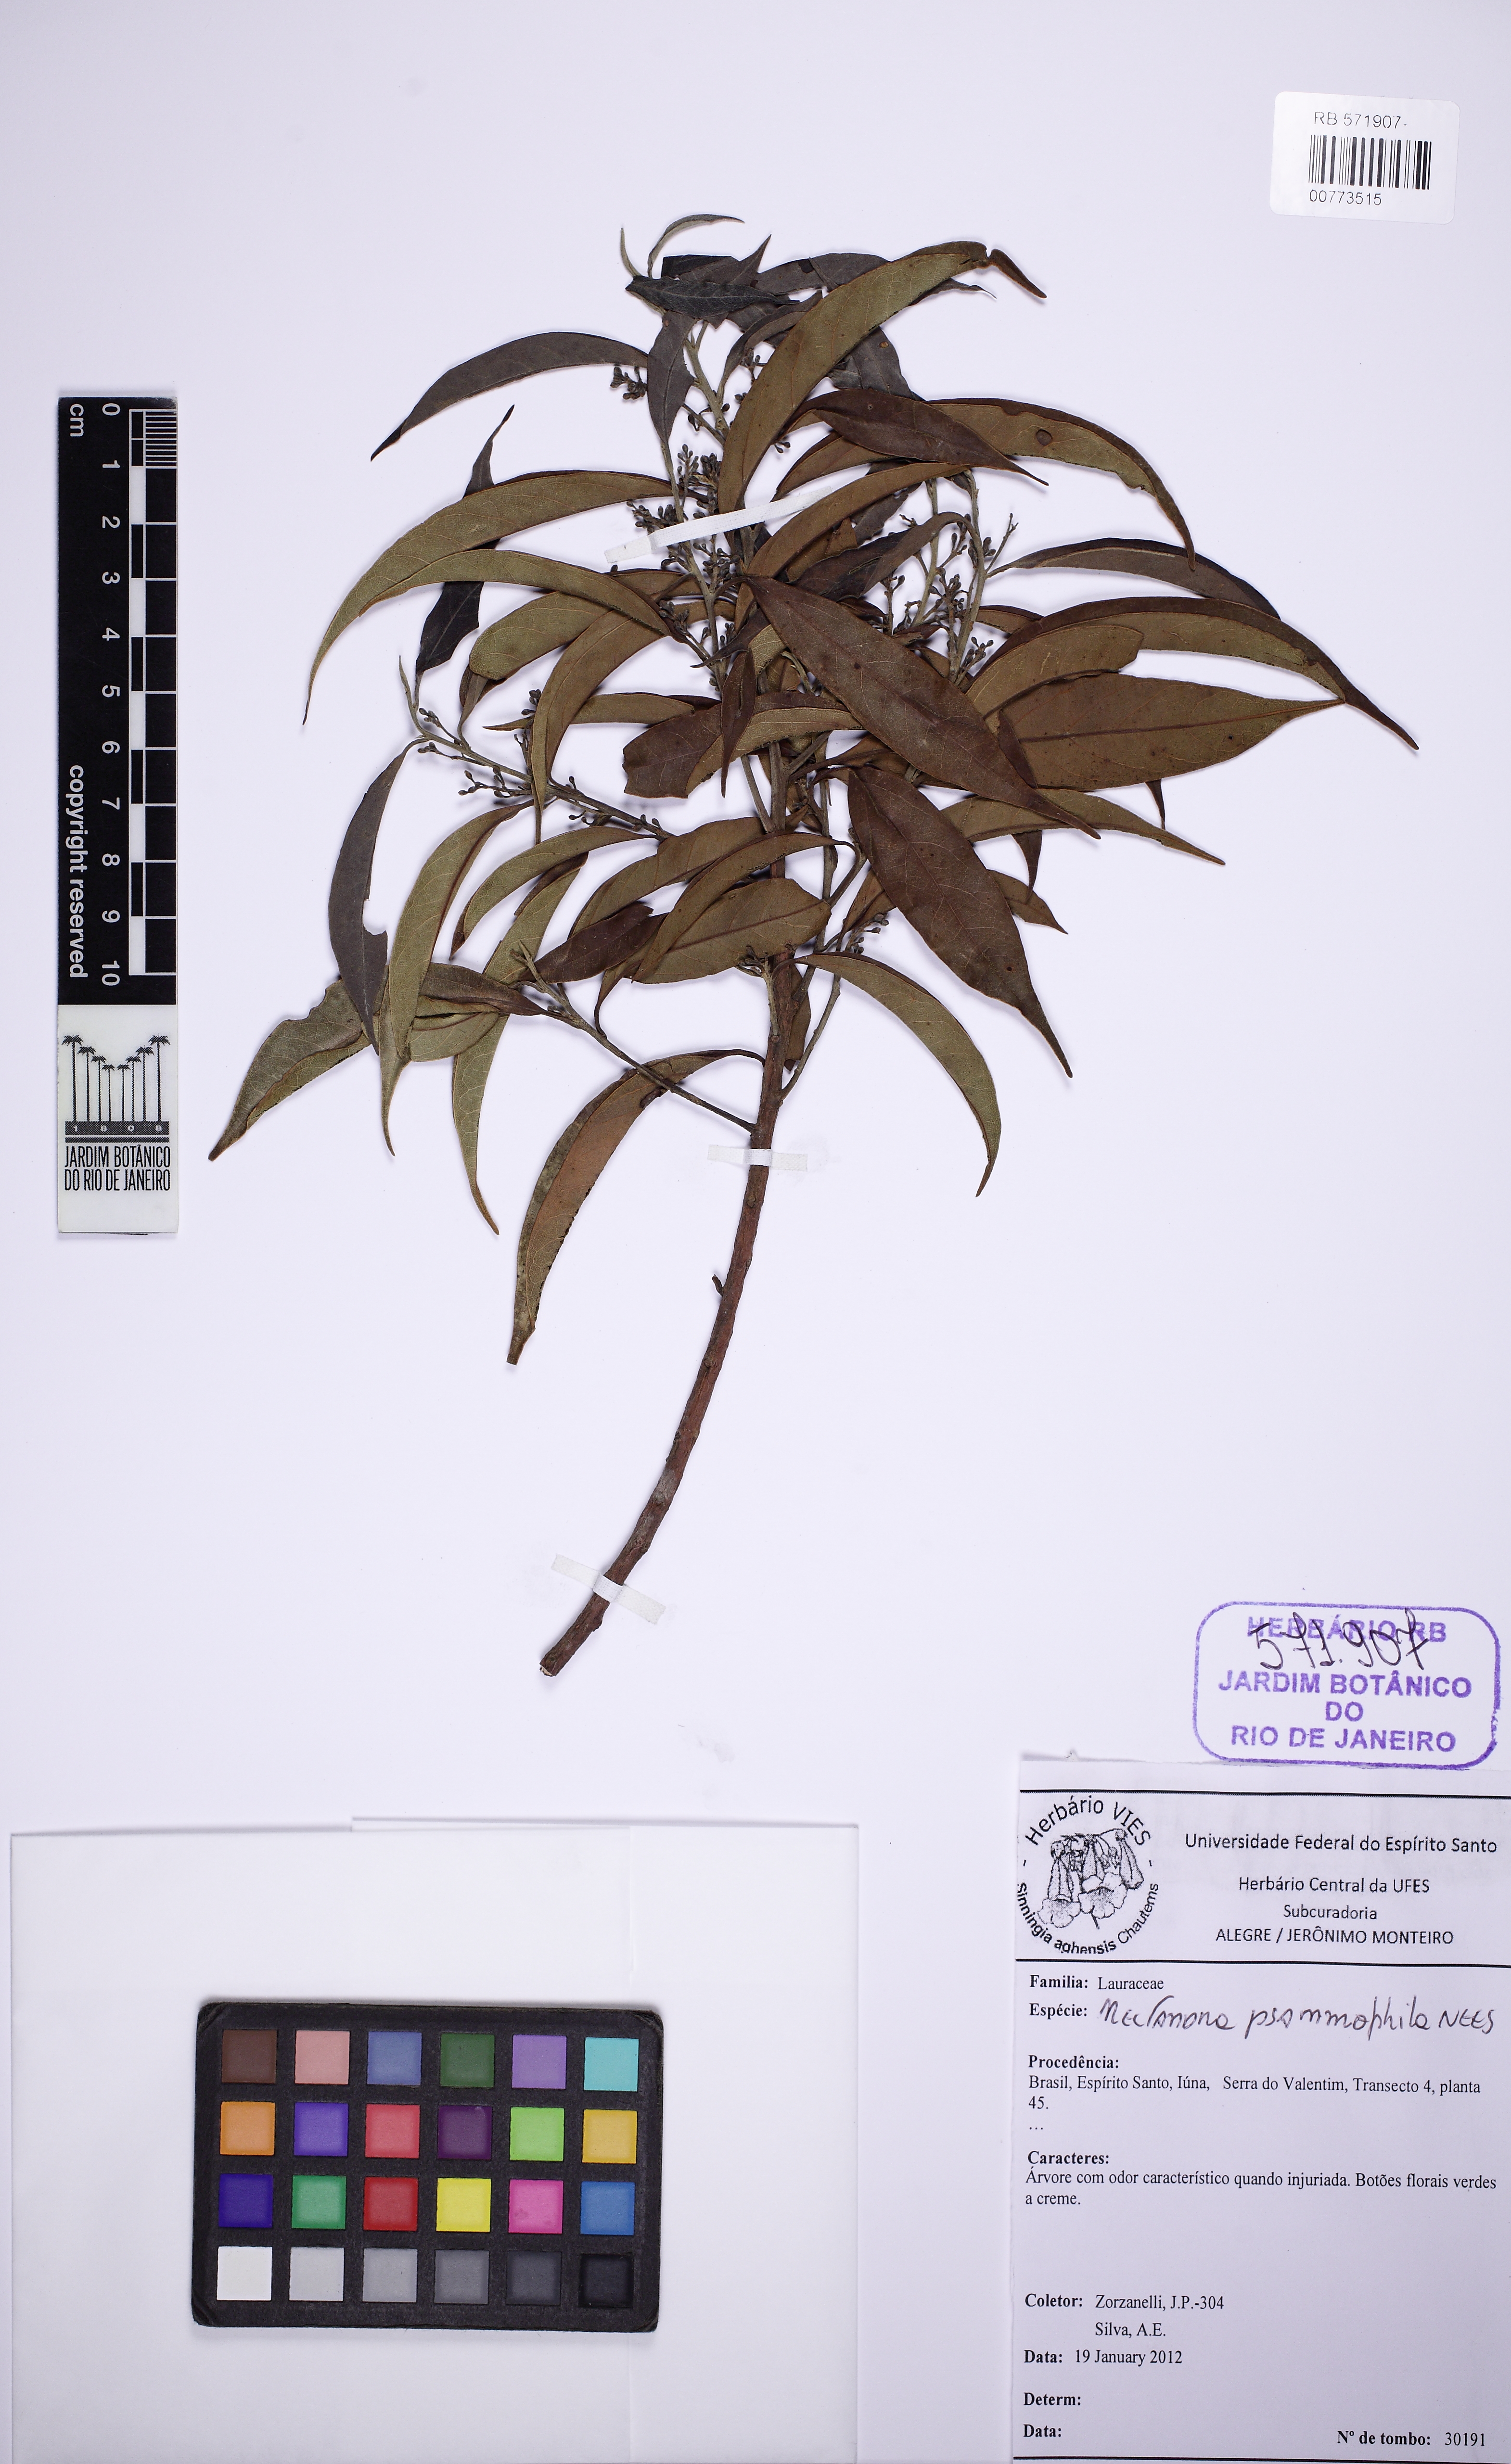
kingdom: Plantae
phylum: Tracheophyta
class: Magnoliopsida
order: Laurales
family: Lauraceae
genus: Nectandra
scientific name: Nectandra psammophila
